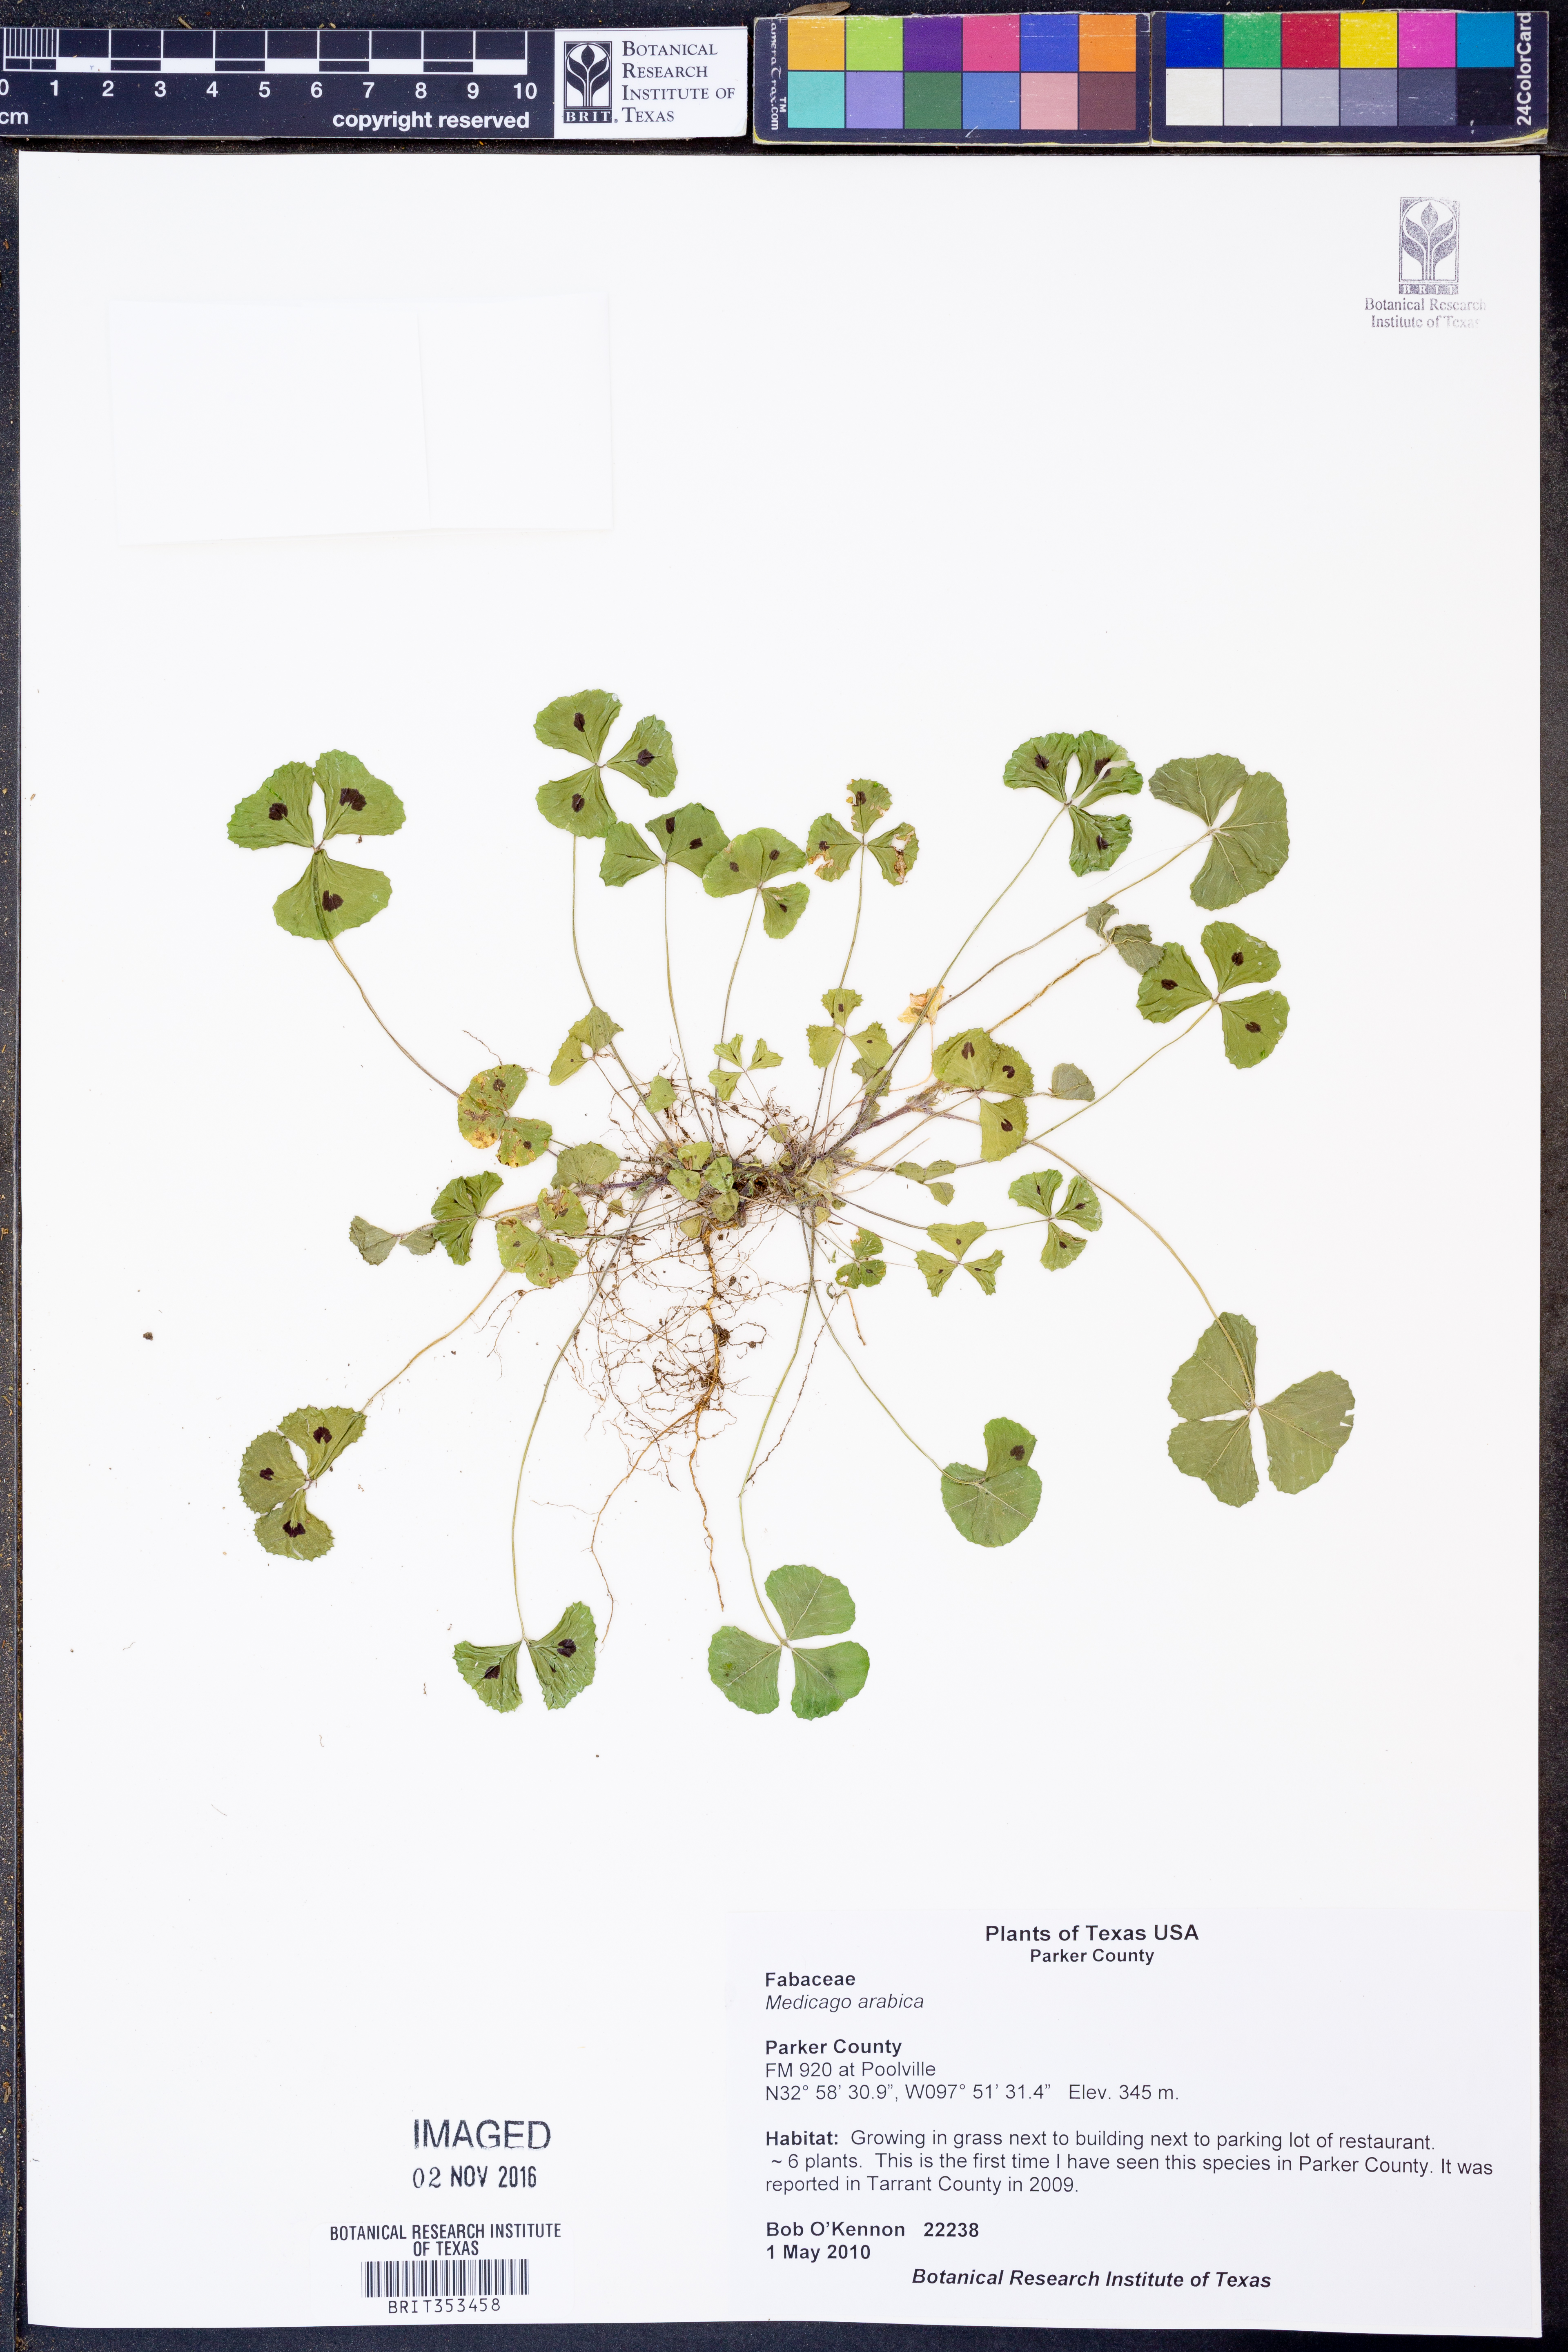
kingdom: Plantae
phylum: Tracheophyta
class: Magnoliopsida
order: Fabales
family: Fabaceae
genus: Medicago
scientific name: Medicago arabica
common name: Spotted medick
